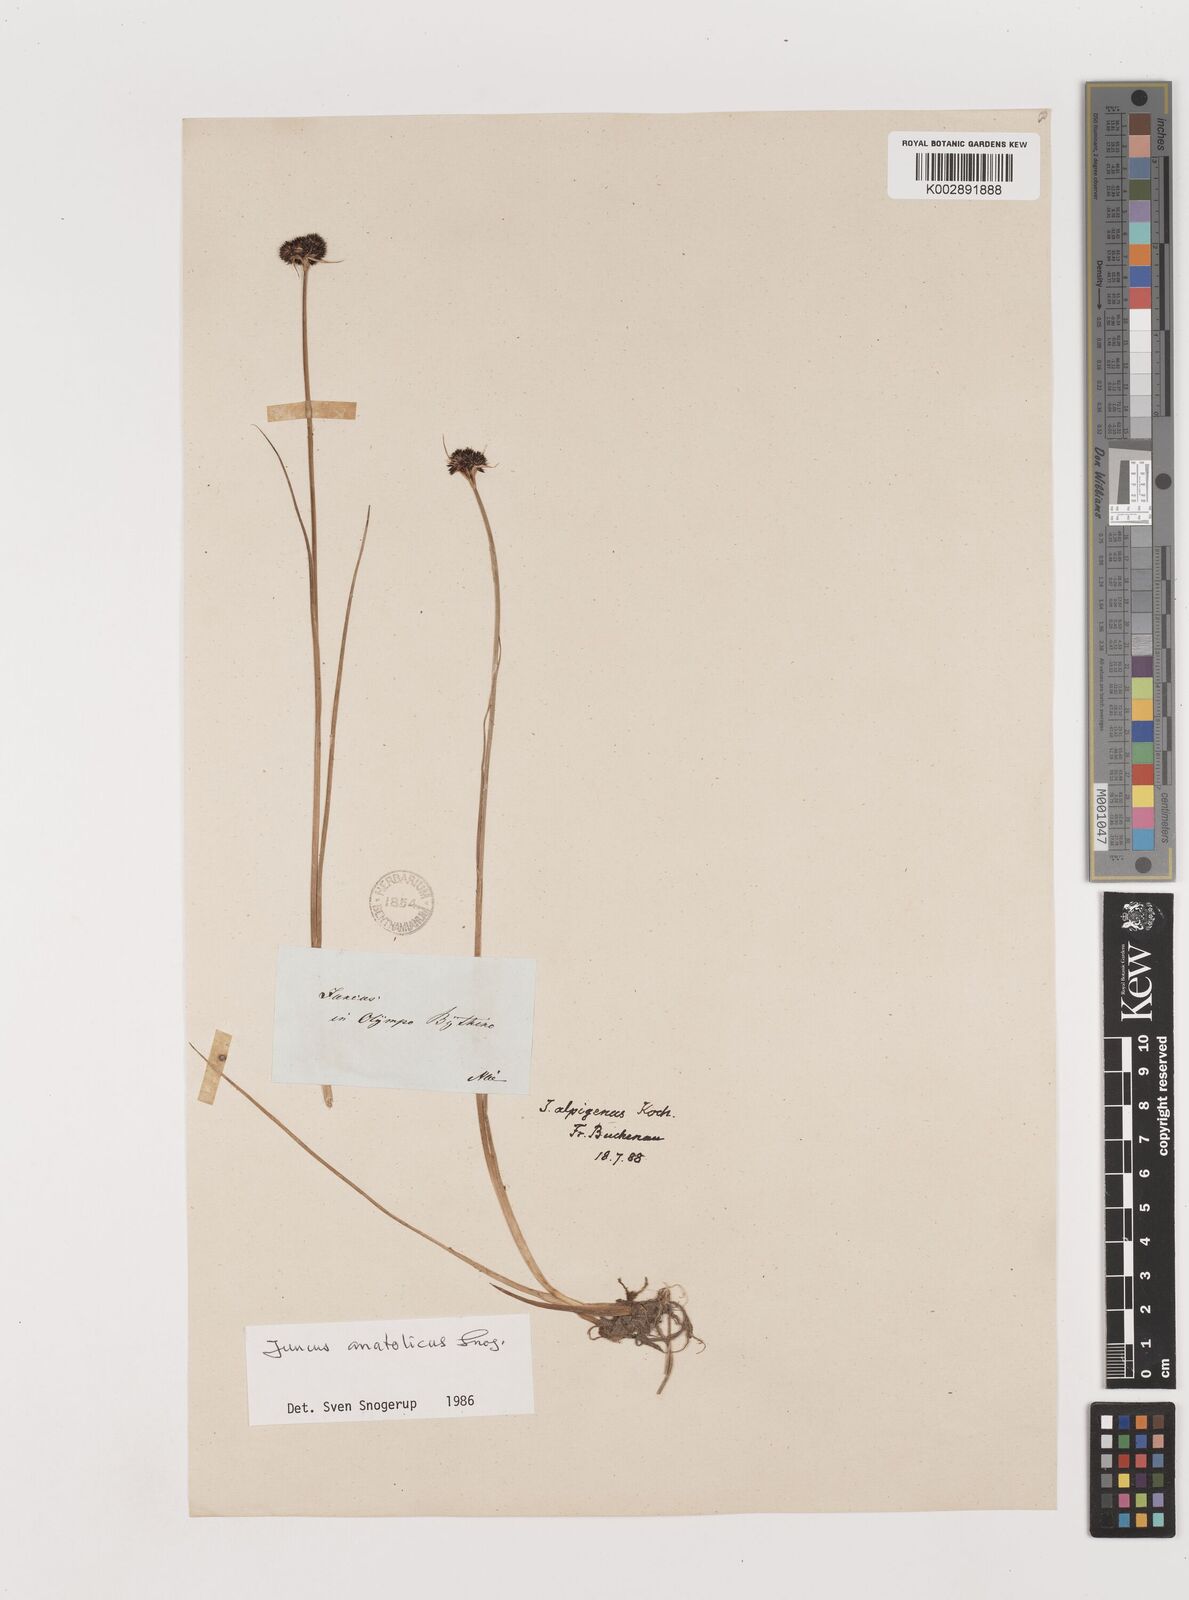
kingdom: Plantae
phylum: Tracheophyta
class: Liliopsida
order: Poales
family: Juncaceae
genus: Juncus
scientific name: Juncus anatolicus
